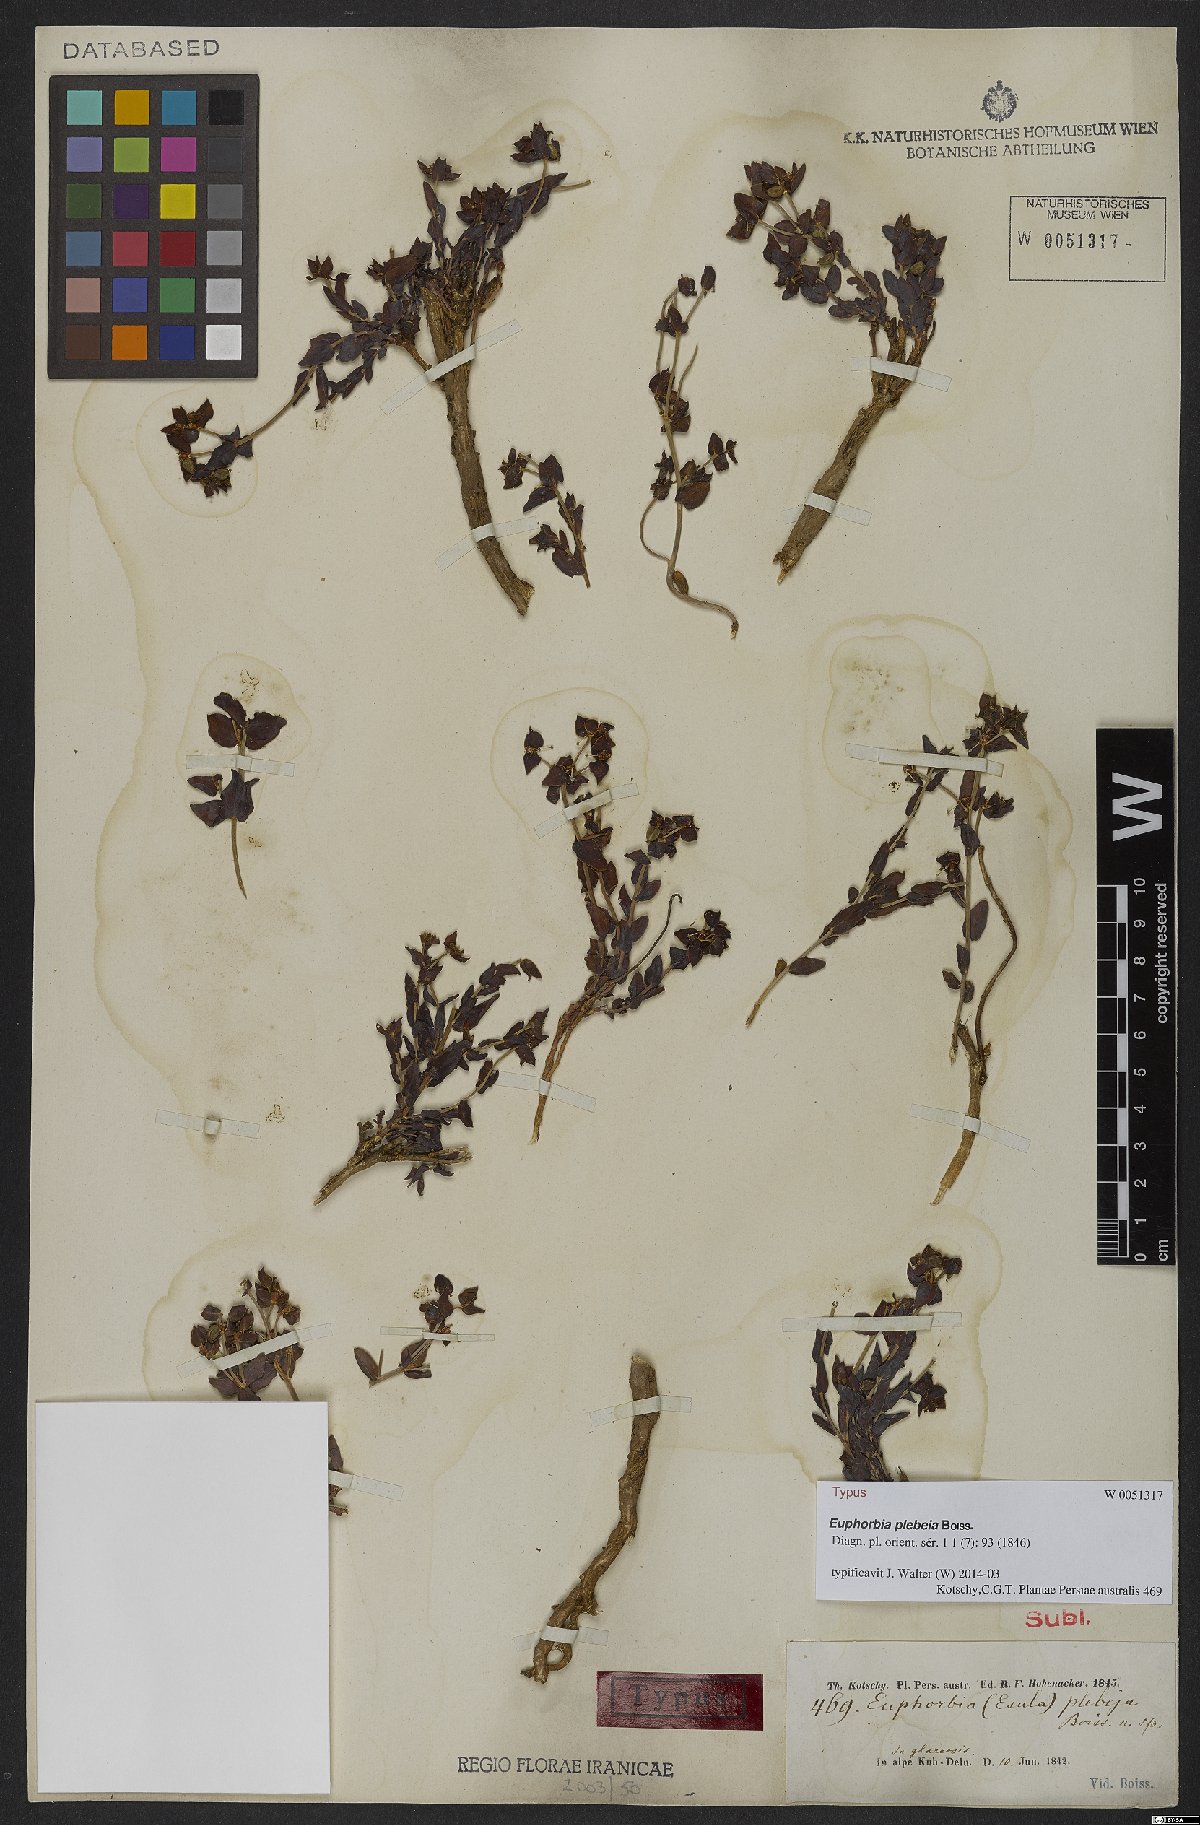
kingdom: Plantae
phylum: Tracheophyta
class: Magnoliopsida
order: Malpighiales
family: Euphorbiaceae
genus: Euphorbia
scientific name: Euphorbia plebeia
